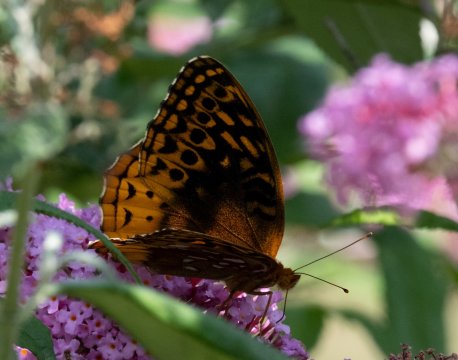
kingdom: Animalia
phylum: Arthropoda
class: Insecta
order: Lepidoptera
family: Nymphalidae
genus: Speyeria
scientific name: Speyeria cybele
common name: Great Spangled Fritillary
